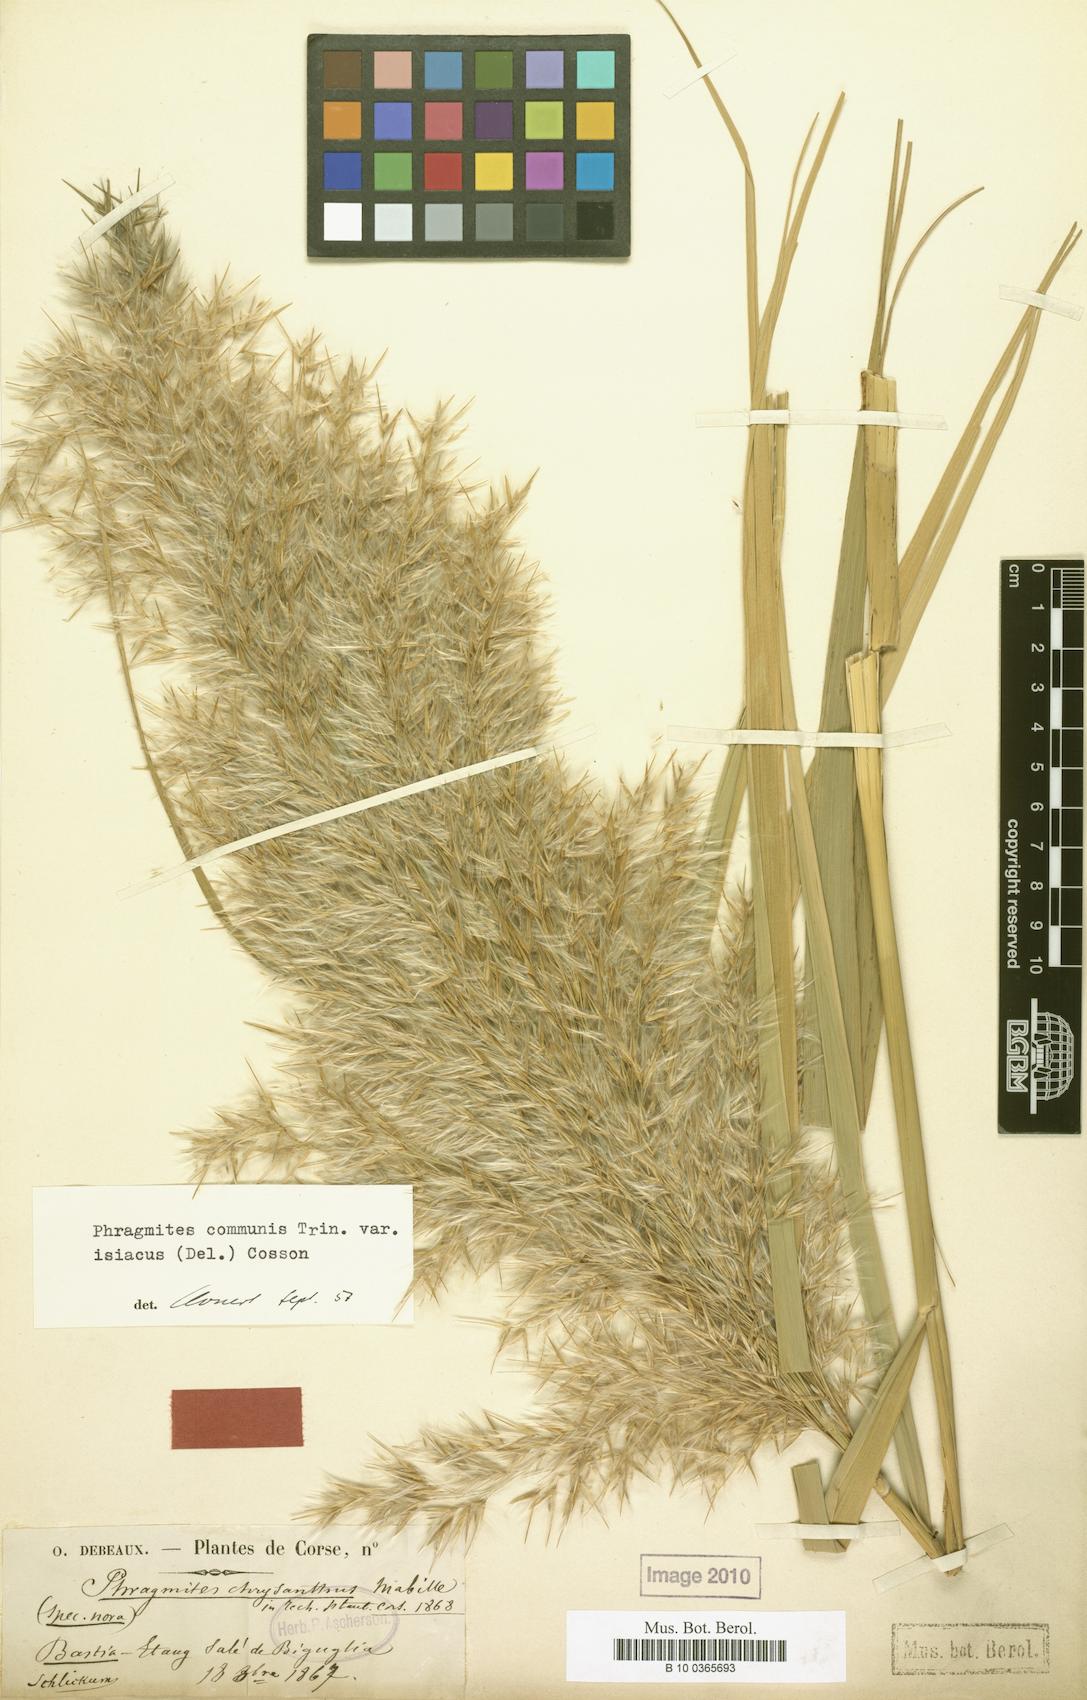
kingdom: Plantae
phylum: Tracheophyta
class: Liliopsida
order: Poales
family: Poaceae
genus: Phragmites
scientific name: Phragmites australis
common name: Common reed
